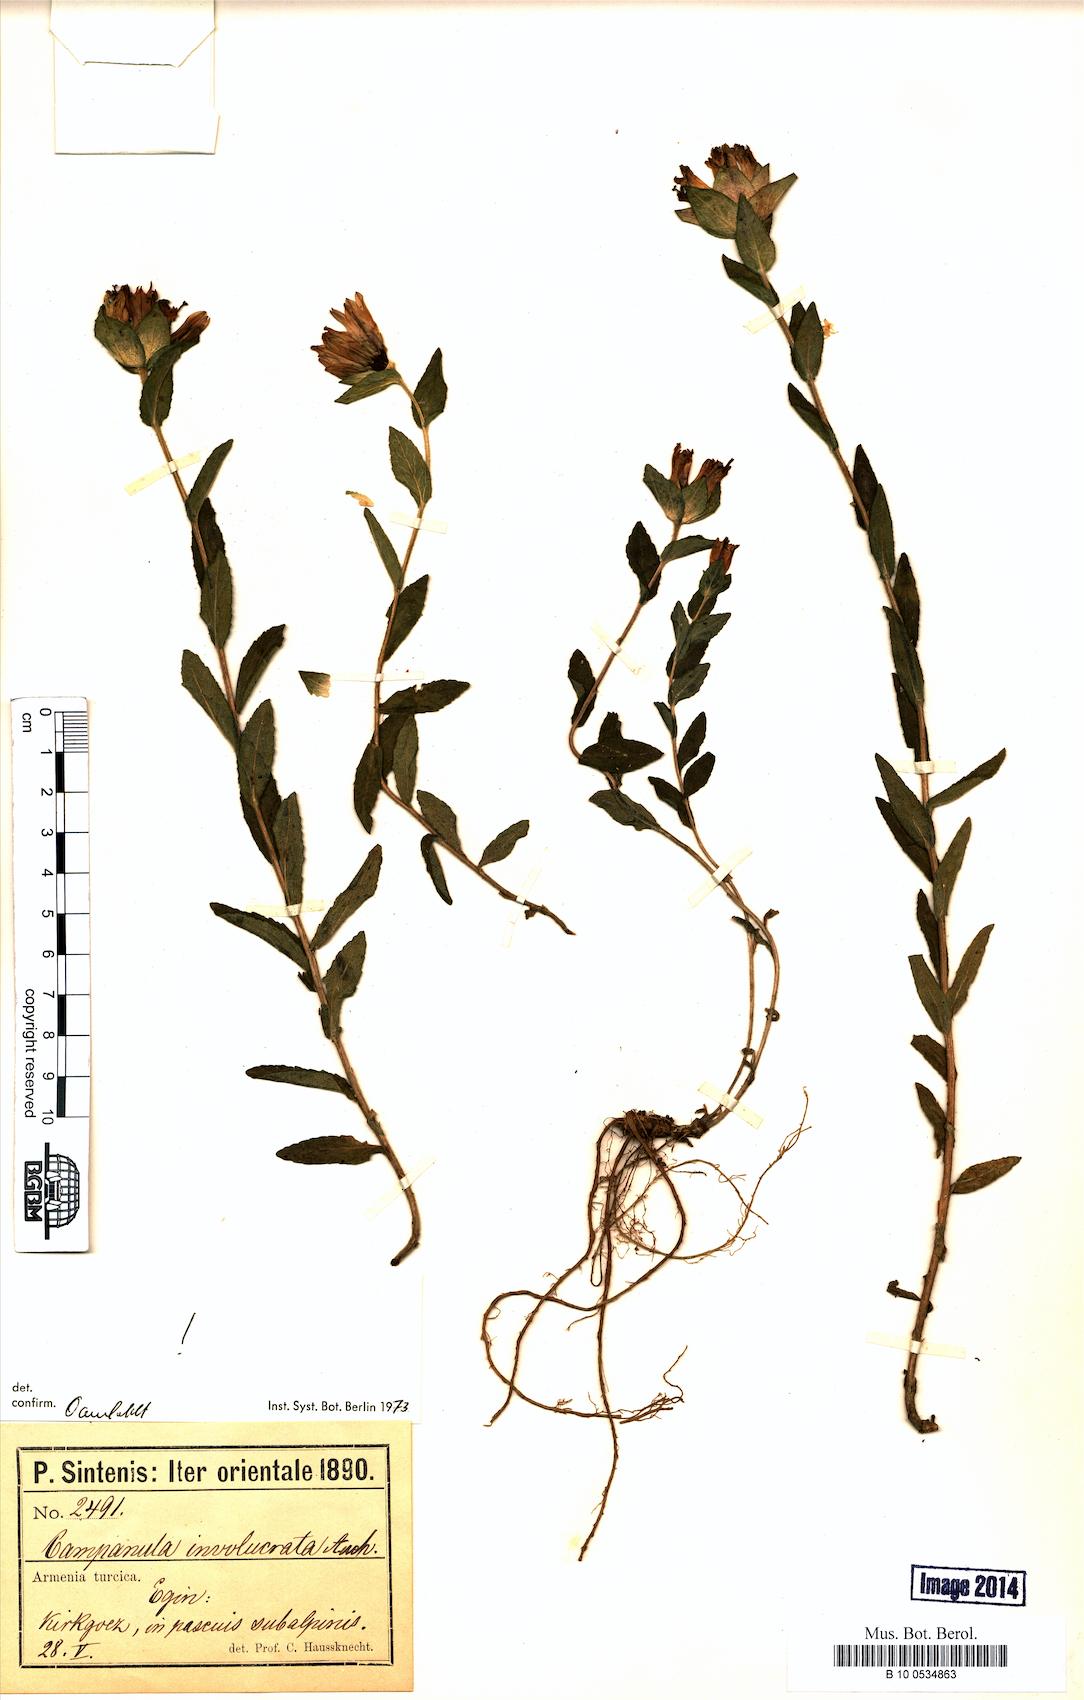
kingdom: Plantae
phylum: Tracheophyta
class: Magnoliopsida
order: Asterales
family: Campanulaceae
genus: Campanula
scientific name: Campanula involucrata
